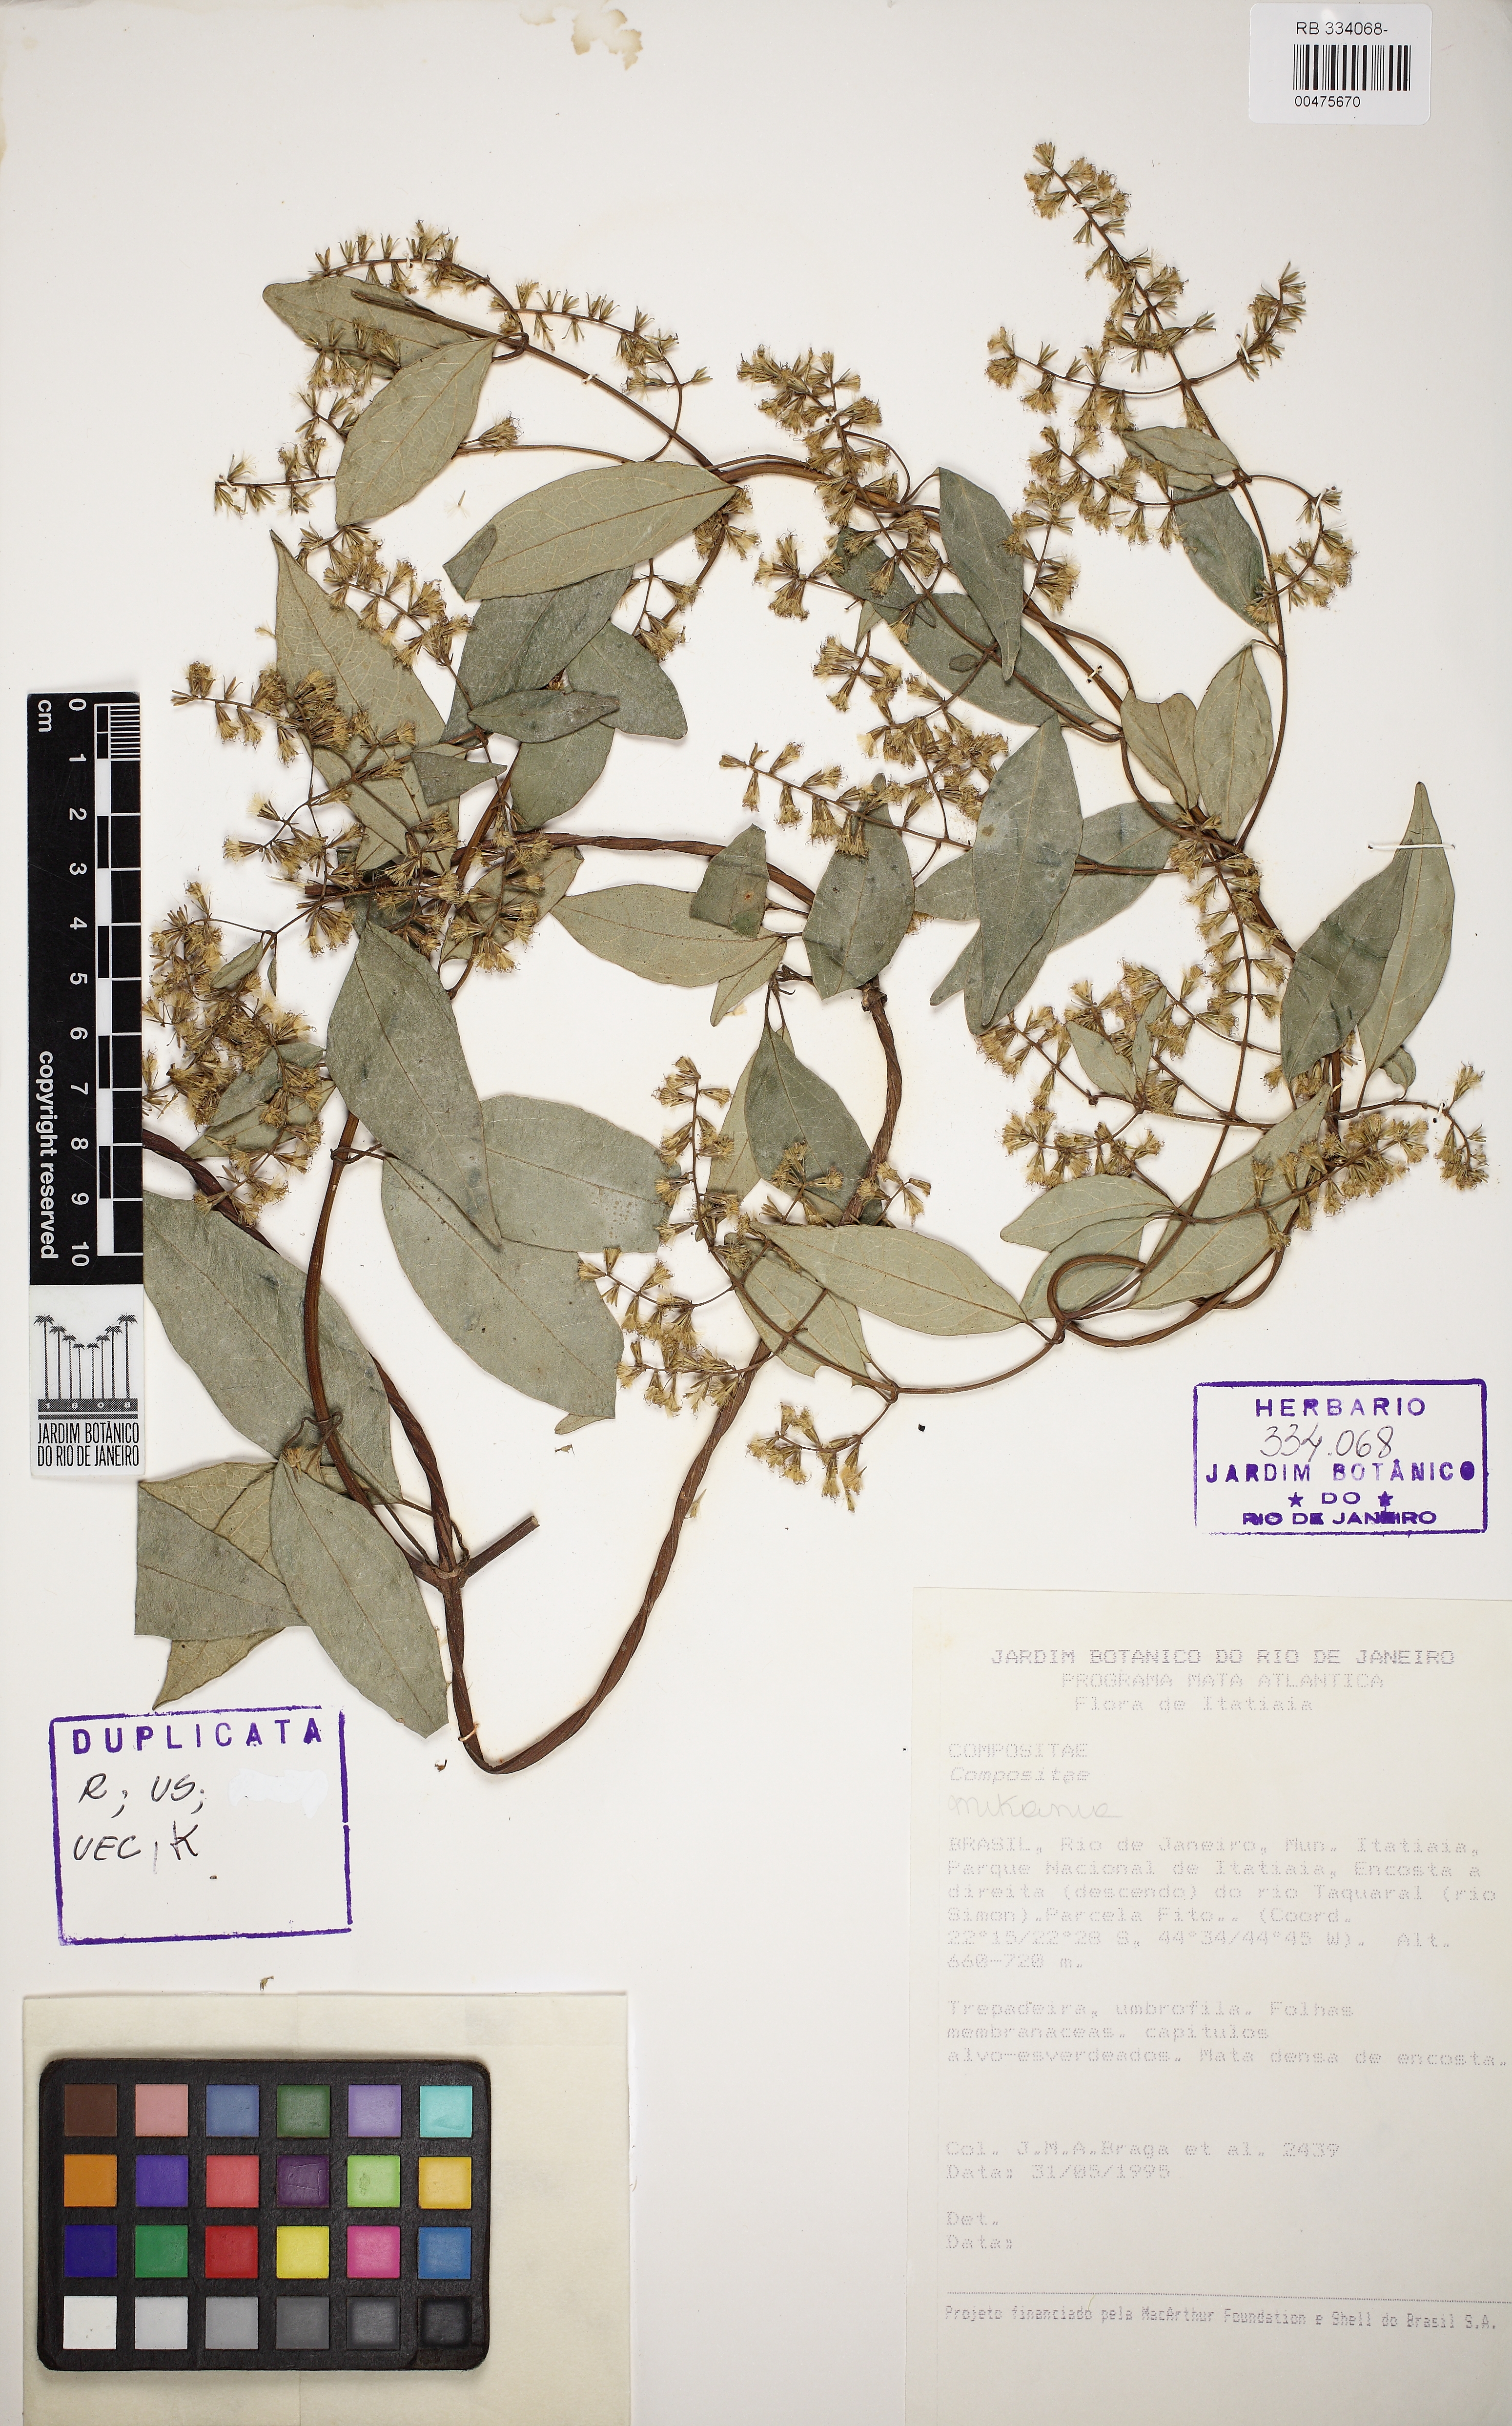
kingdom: Plantae
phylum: Tracheophyta
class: Magnoliopsida
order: Asterales
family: Asteraceae
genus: Mikania
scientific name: Mikania acuminata
